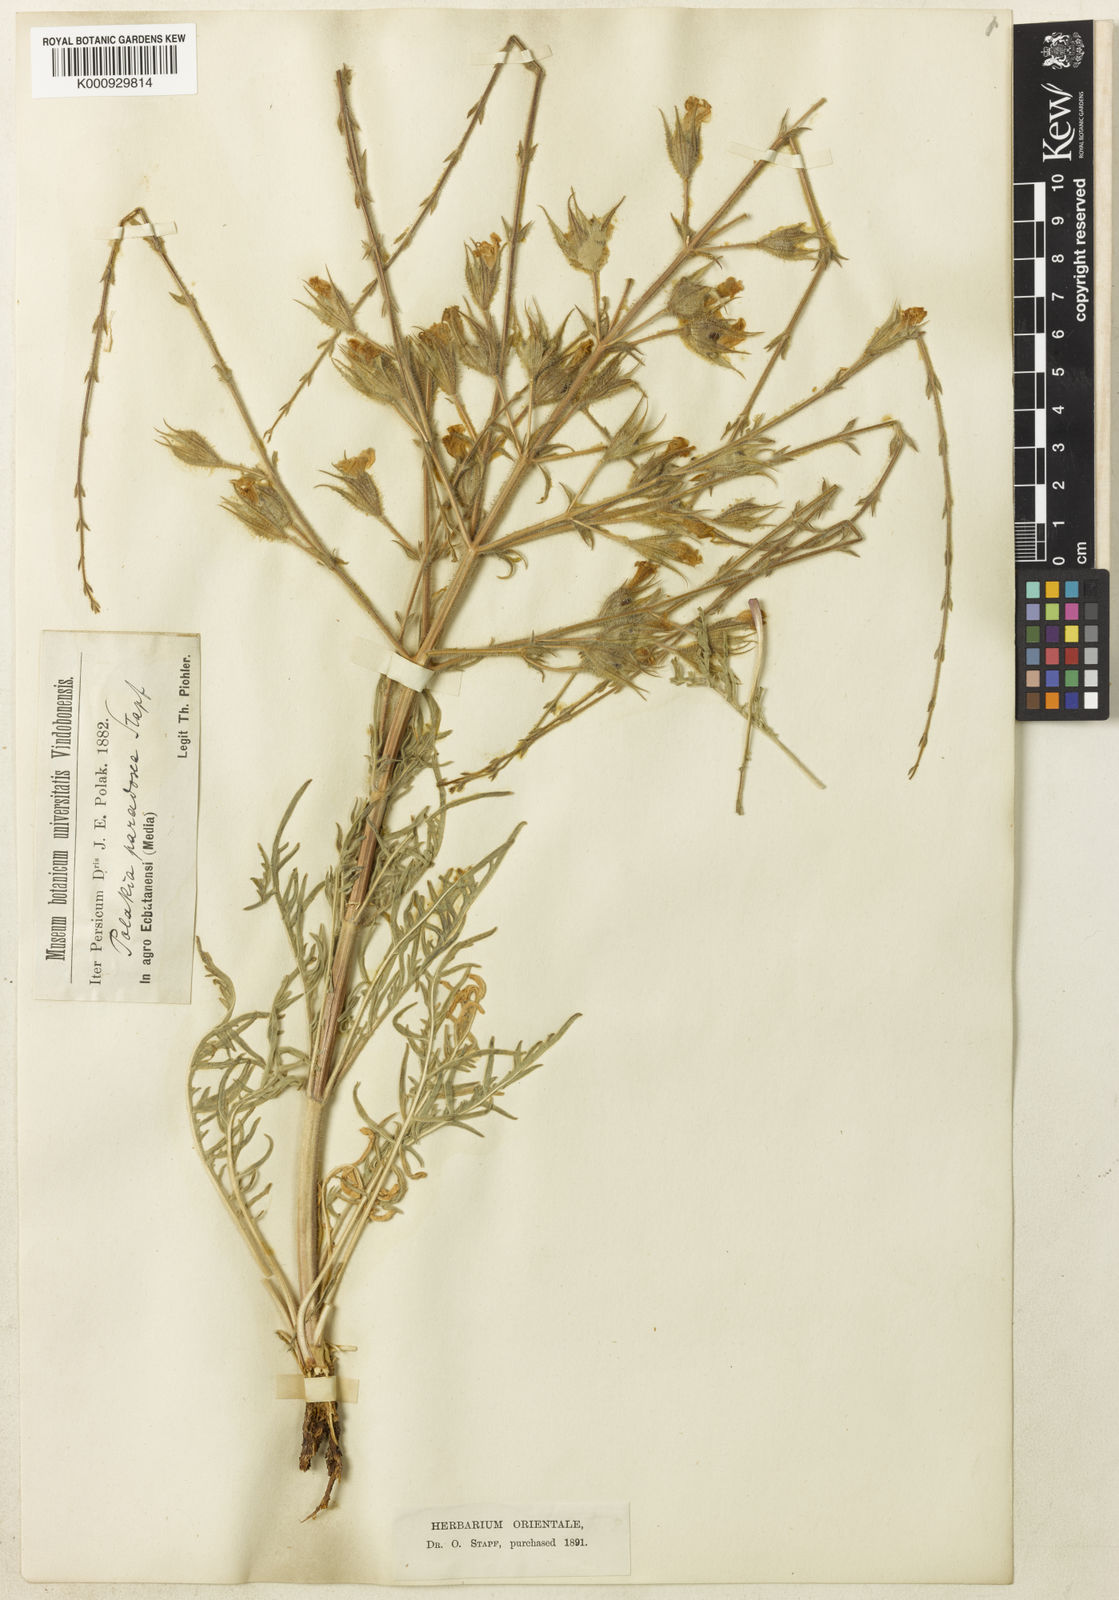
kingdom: Plantae
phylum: Tracheophyta
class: Magnoliopsida
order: Lamiales
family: Lamiaceae
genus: Salvia
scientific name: Salvia
